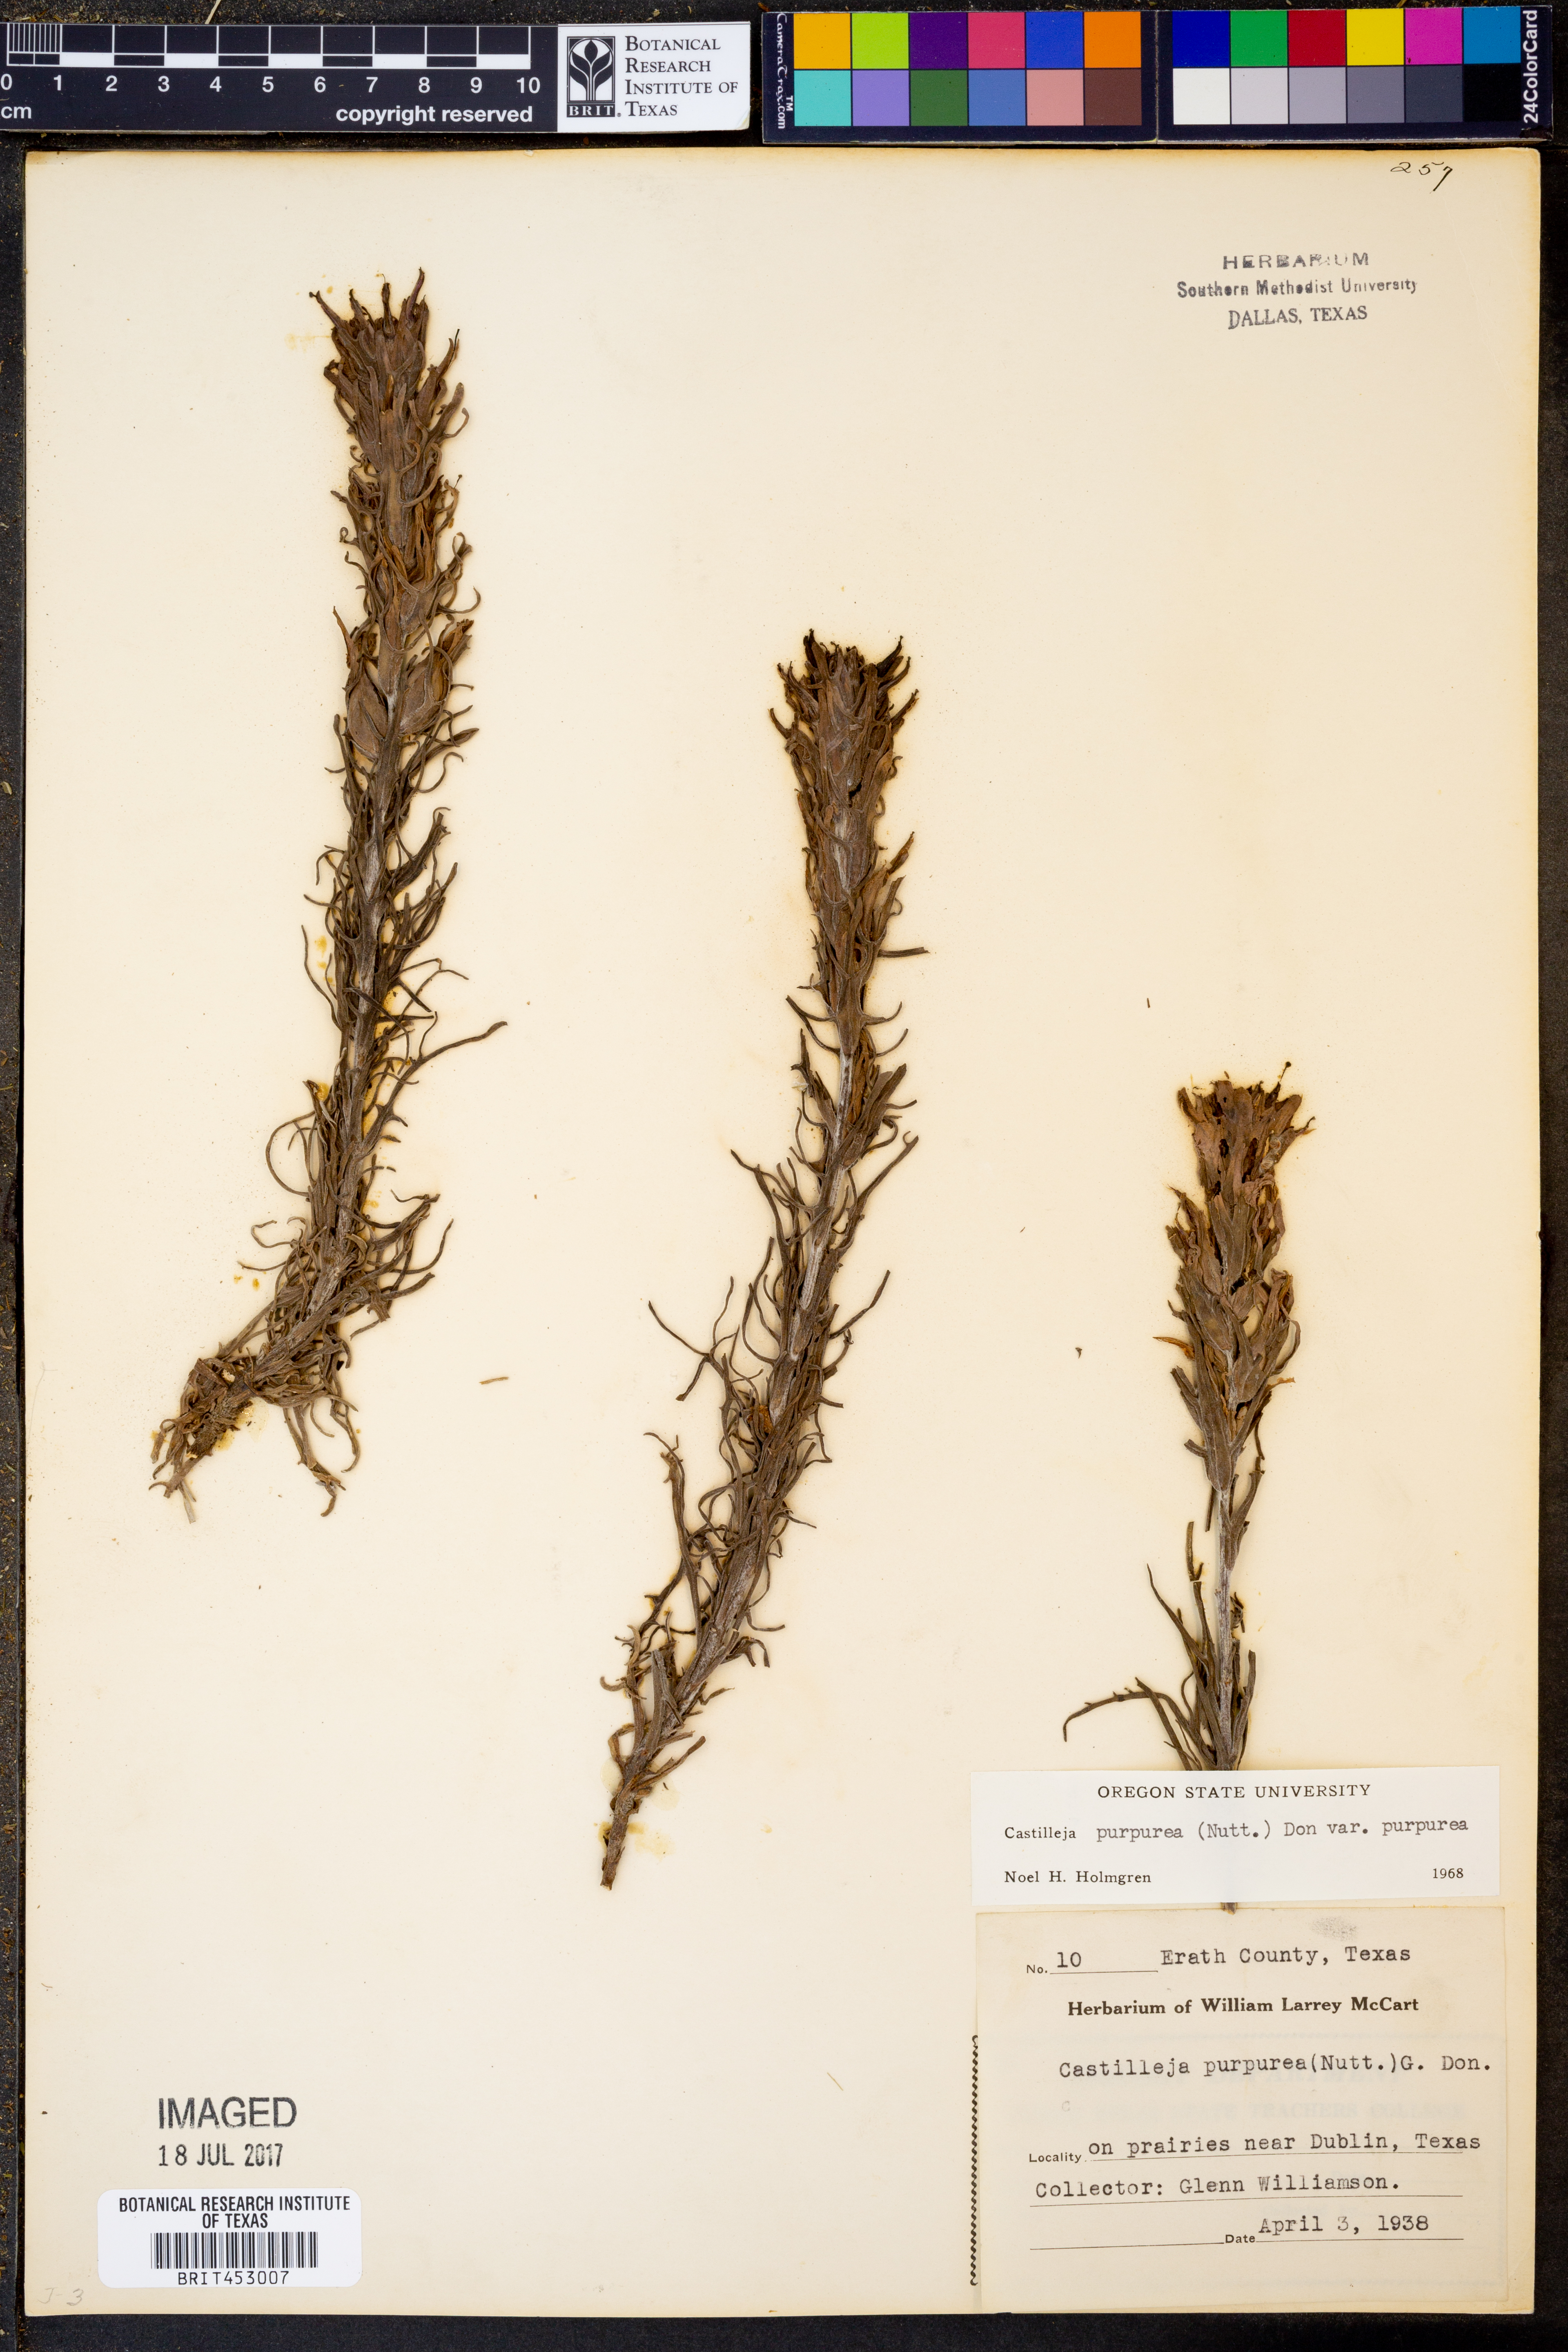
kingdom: Plantae
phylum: Tracheophyta
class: Magnoliopsida
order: Lamiales
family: Orobanchaceae
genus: Castilleja
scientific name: Castilleja purpurea
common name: Plains paintbrush
